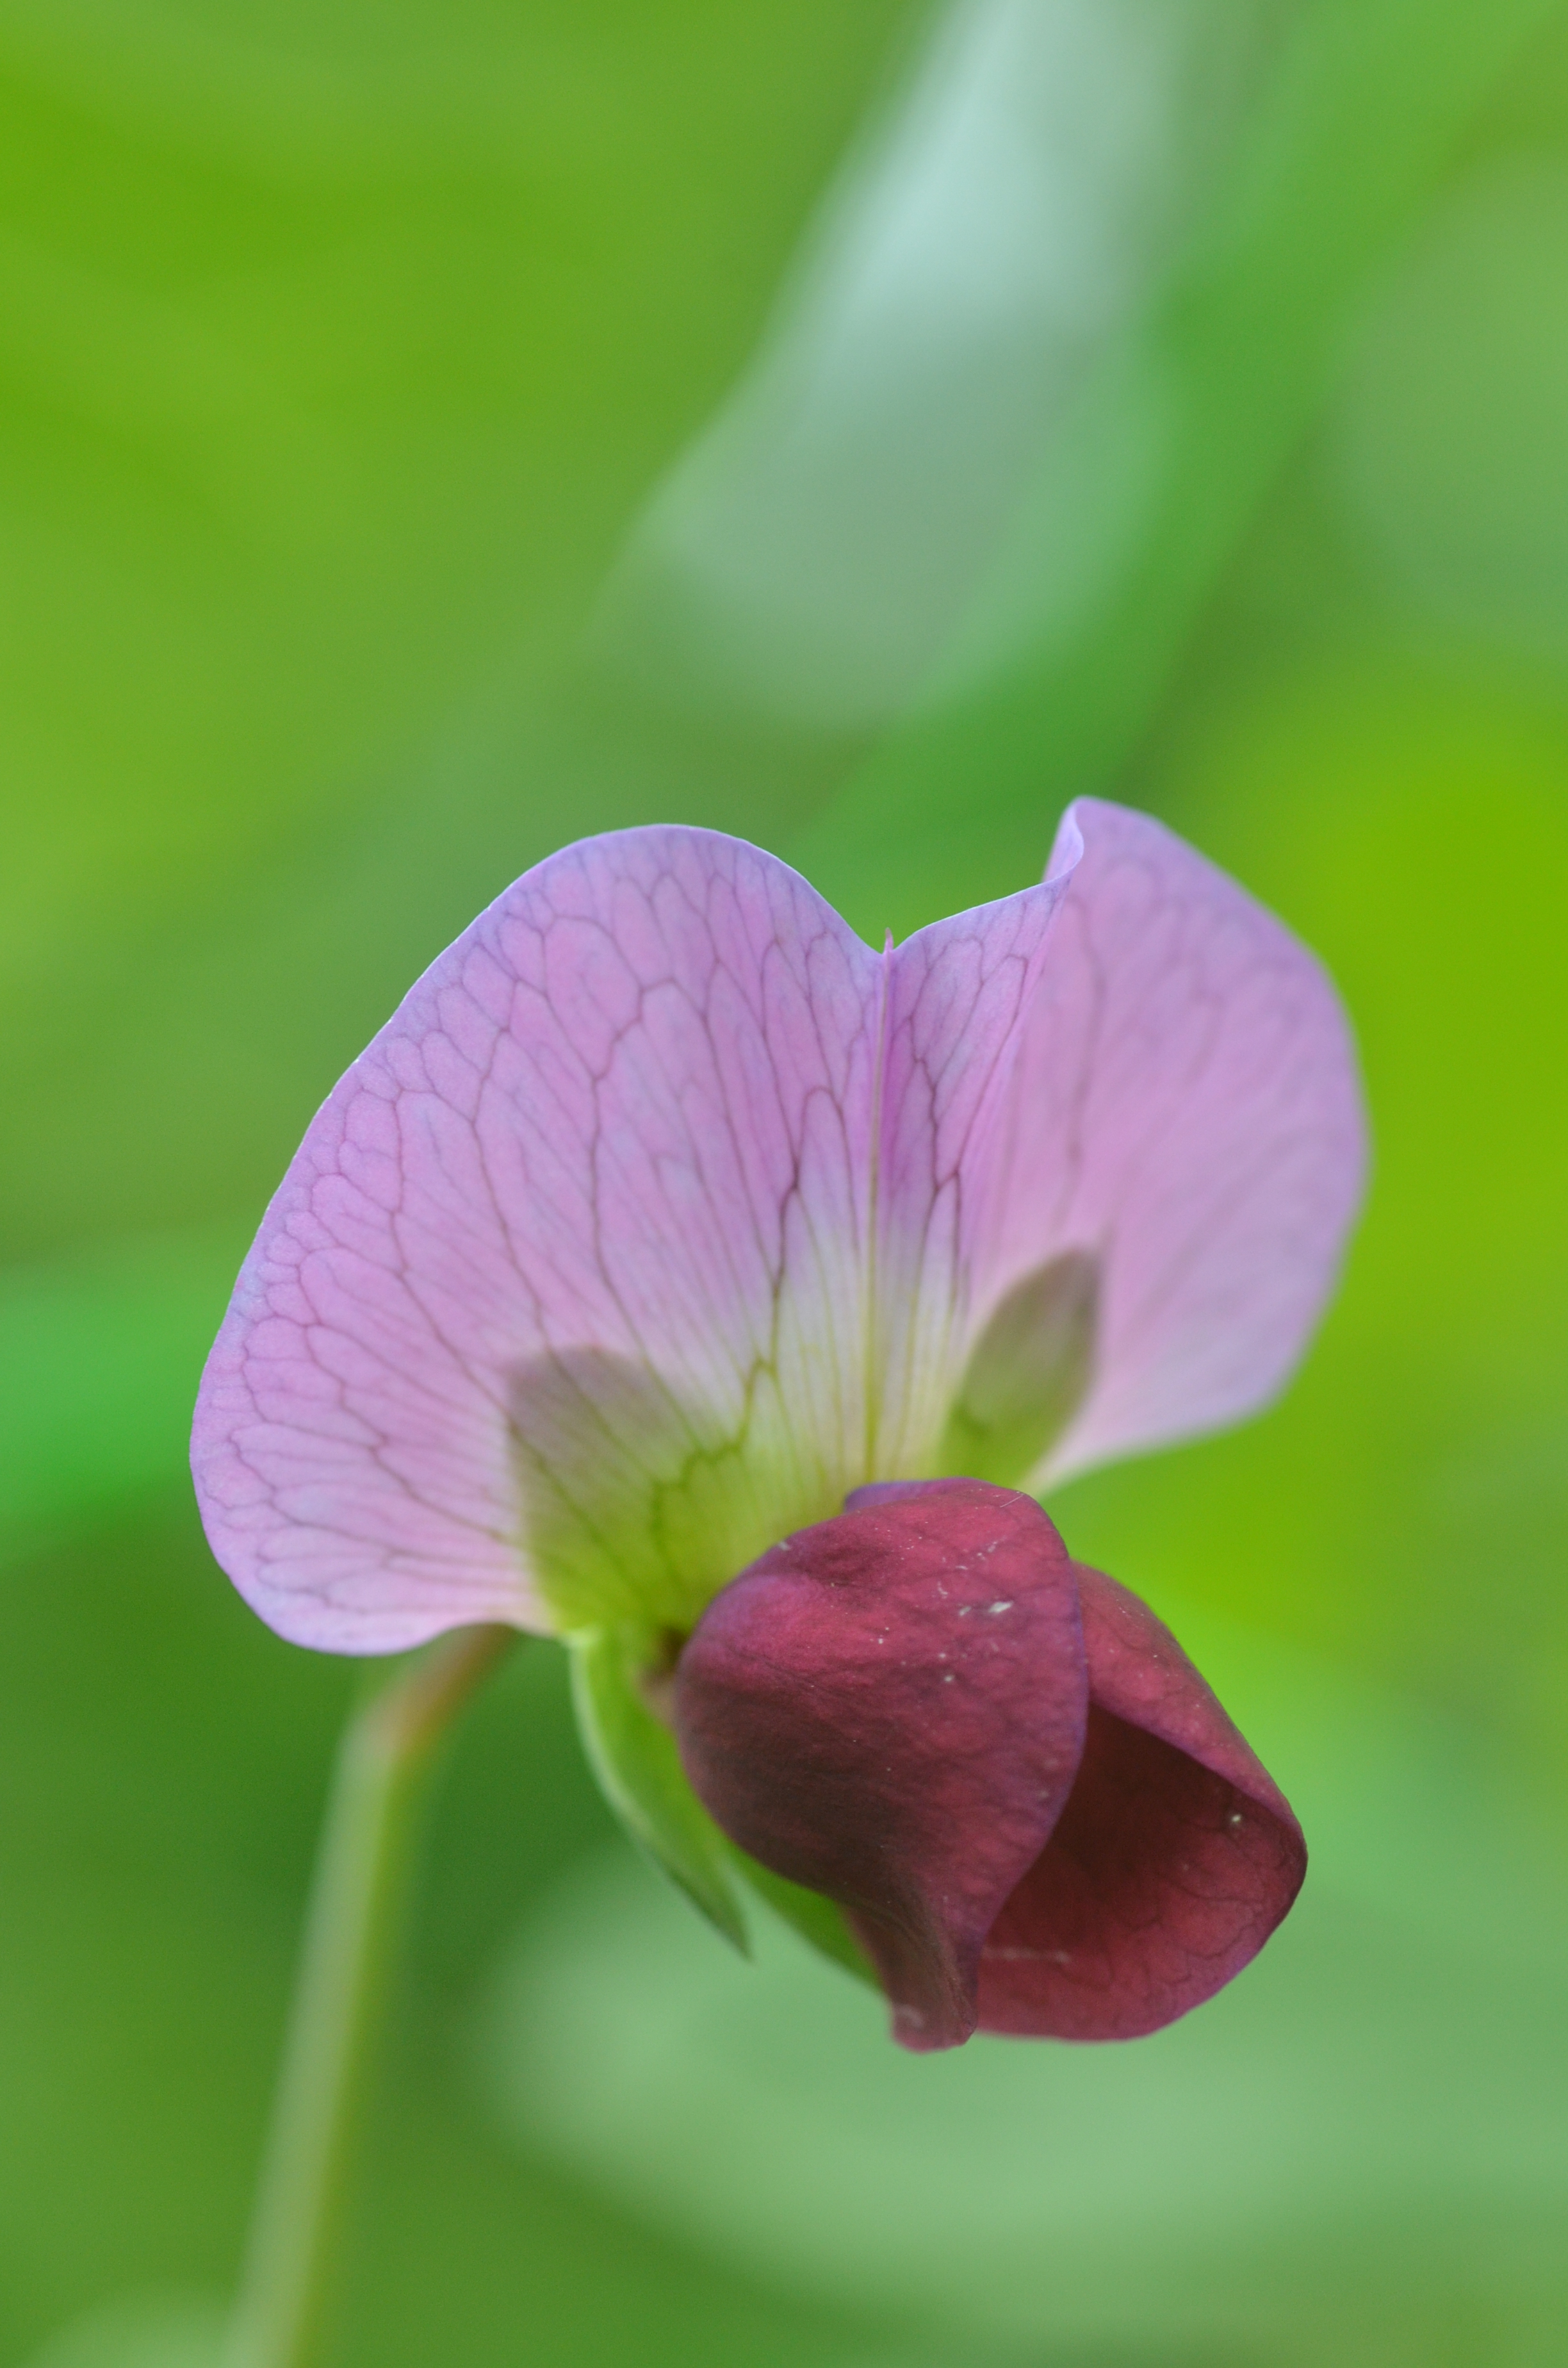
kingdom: Plantae
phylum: Tracheophyta
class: Magnoliopsida
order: Fabales
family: Fabaceae
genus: Lathyrus
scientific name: Lathyrus oleraceus
